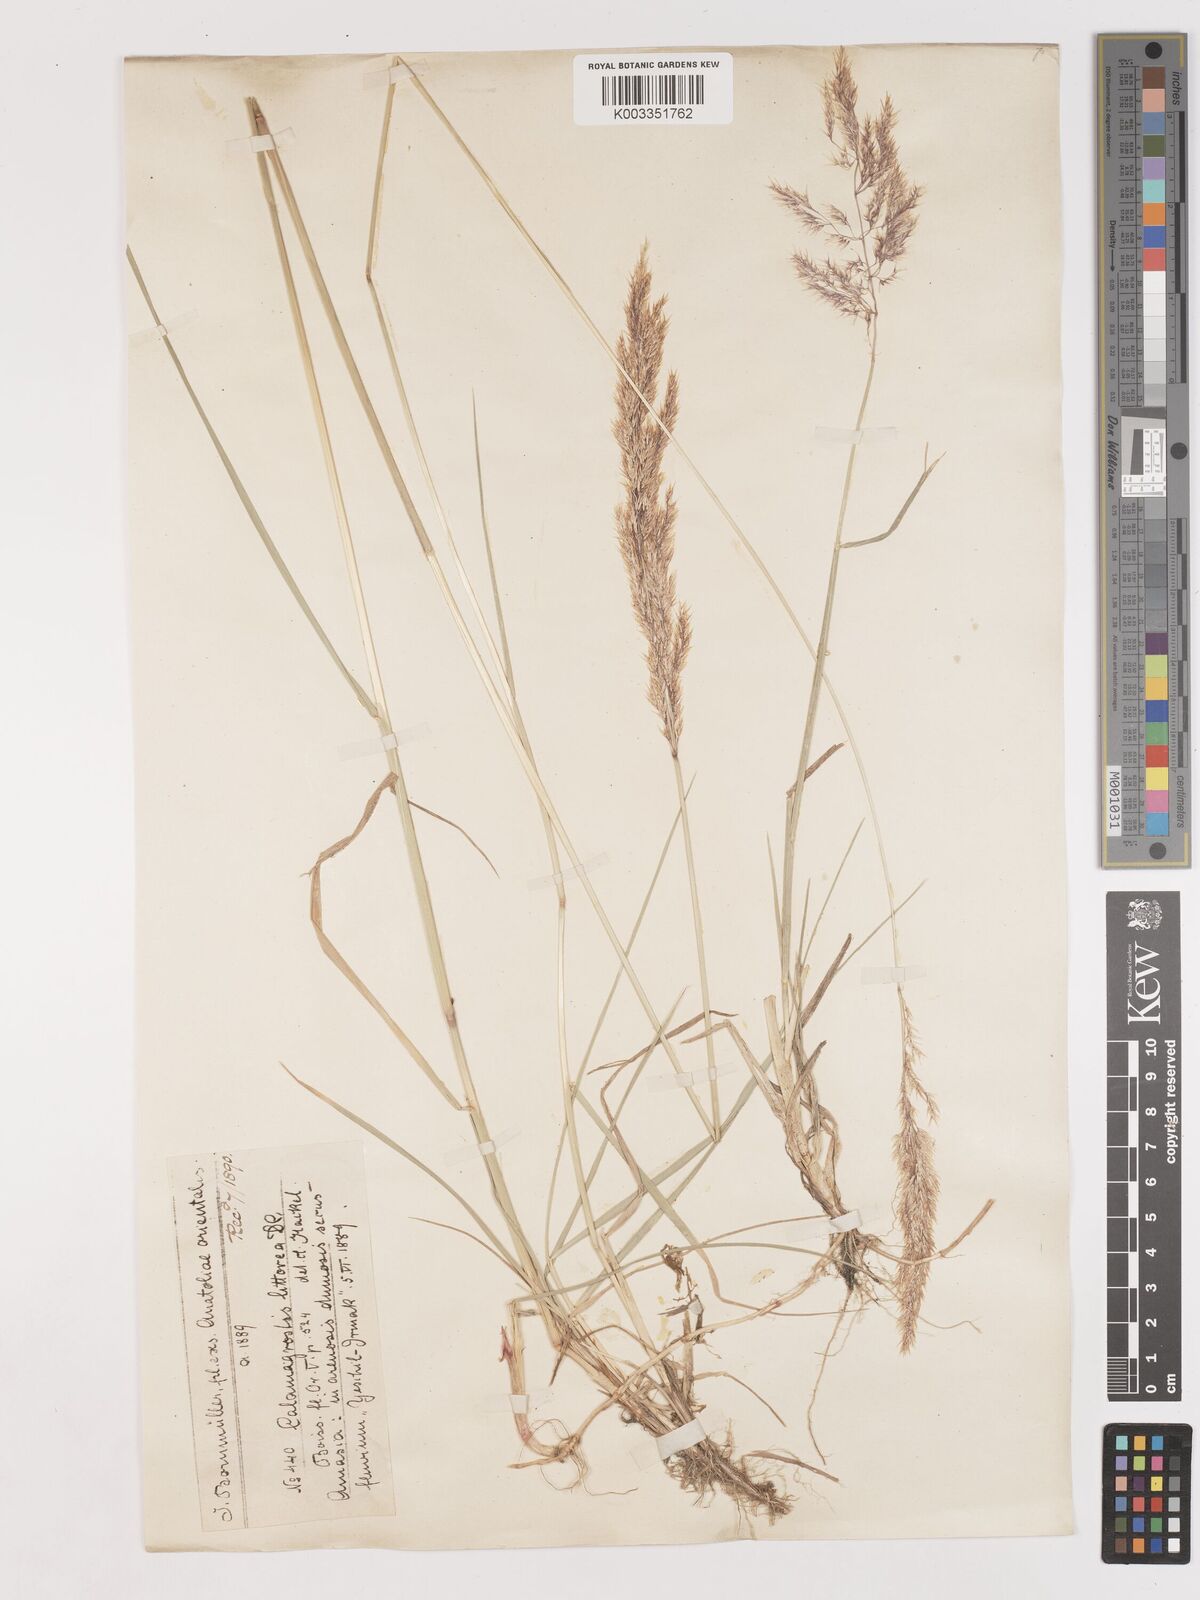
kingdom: Plantae
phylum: Tracheophyta
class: Liliopsida
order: Poales
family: Poaceae
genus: Calamagrostis
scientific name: Calamagrostis pseudophragmites
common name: Coastal small-reed
